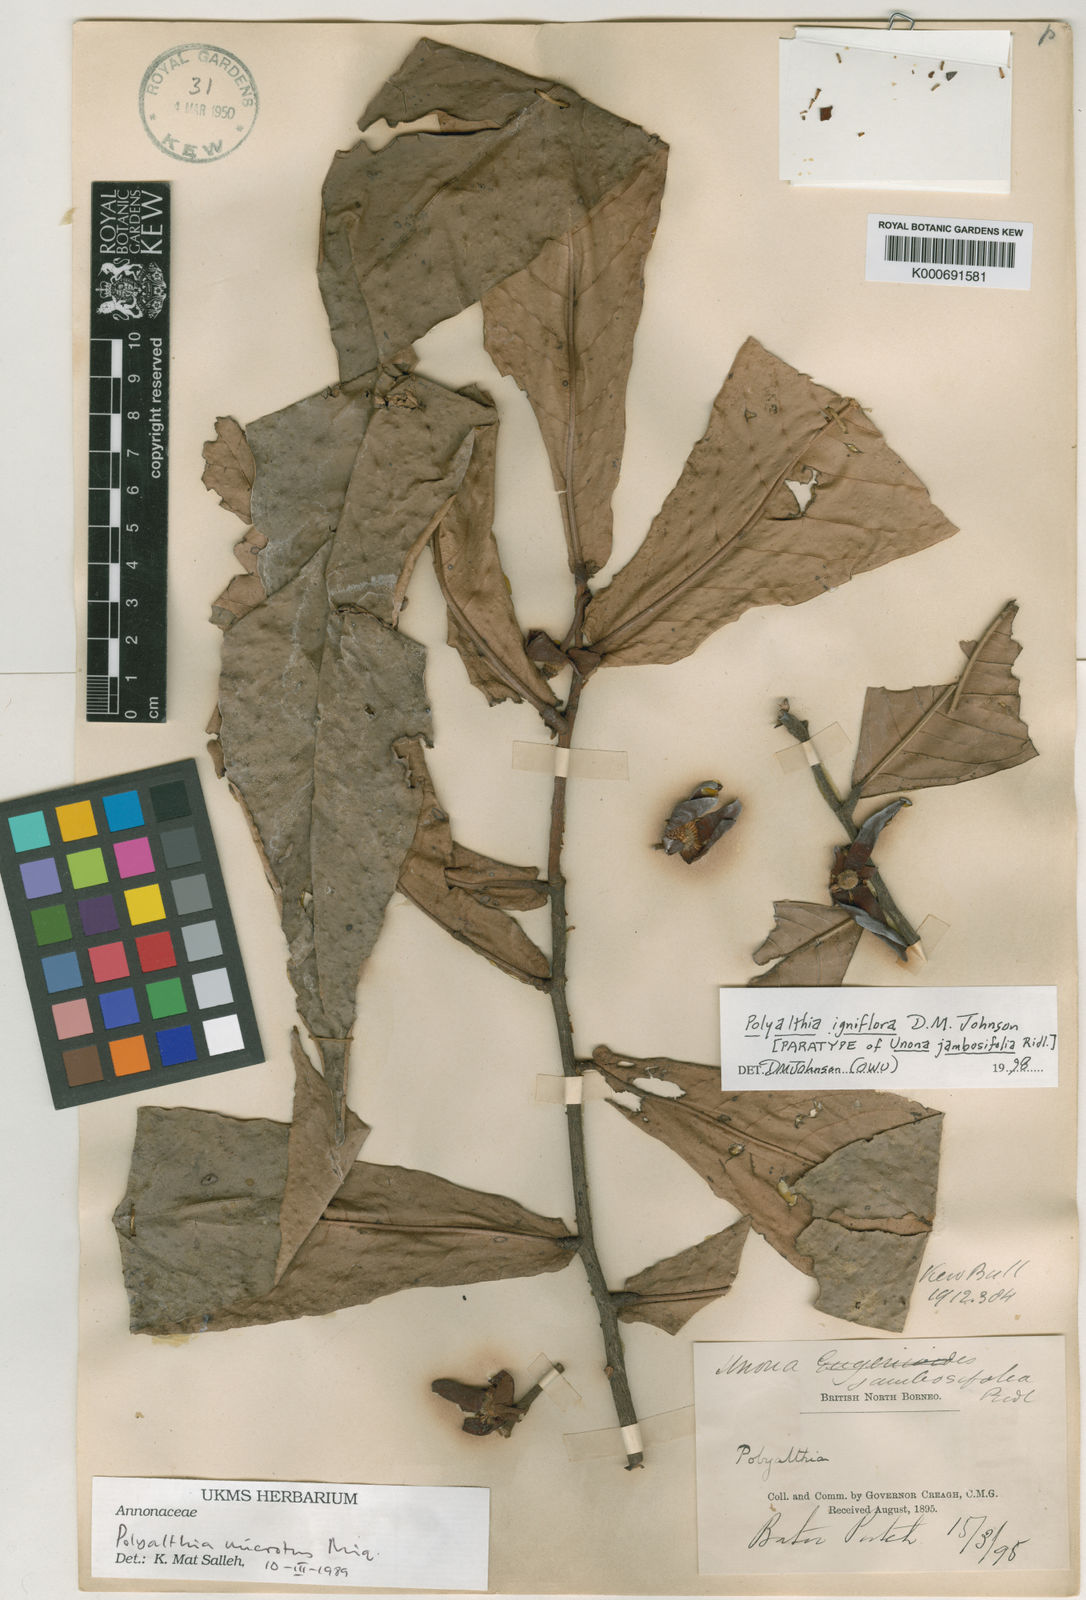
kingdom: Plantae
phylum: Tracheophyta
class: Magnoliopsida
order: Magnoliales
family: Annonaceae
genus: Polyalthia
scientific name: Polyalthia jambosifolia
